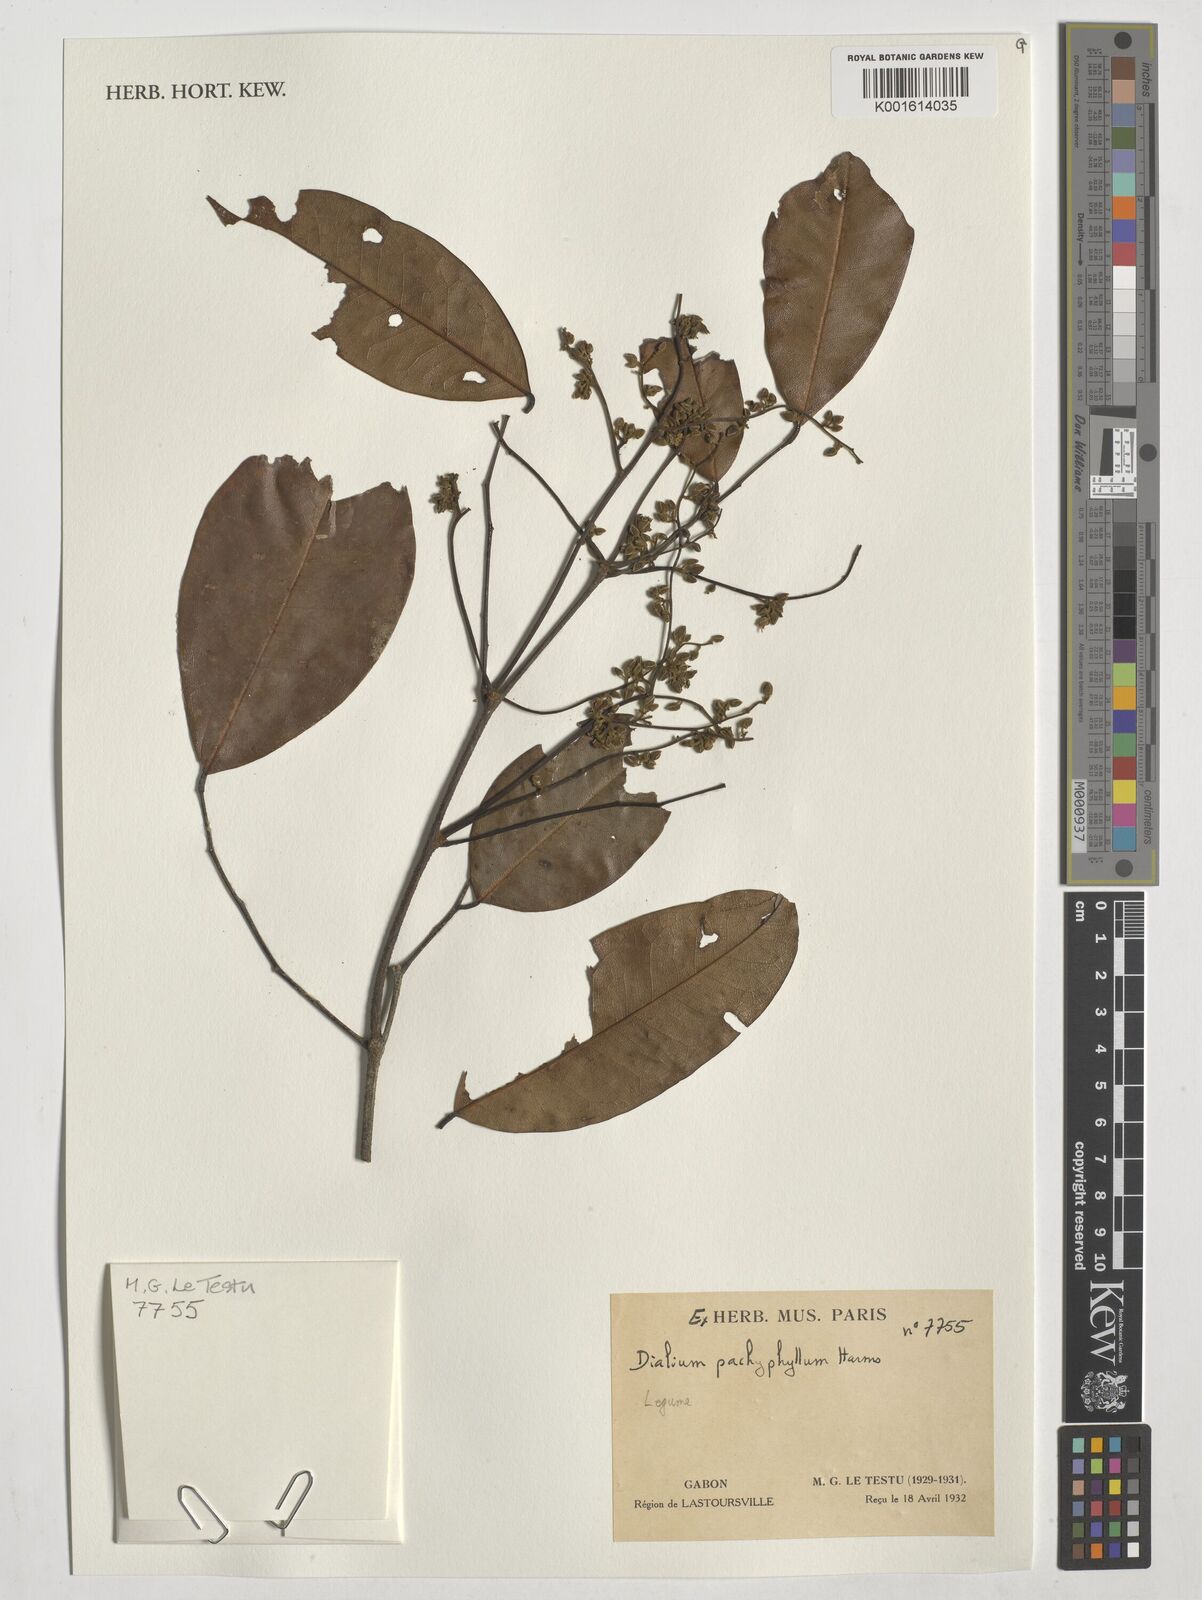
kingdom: Plantae
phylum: Tracheophyta
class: Magnoliopsida
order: Fabales
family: Fabaceae
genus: Dialium
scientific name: Dialium pachyphyllum
